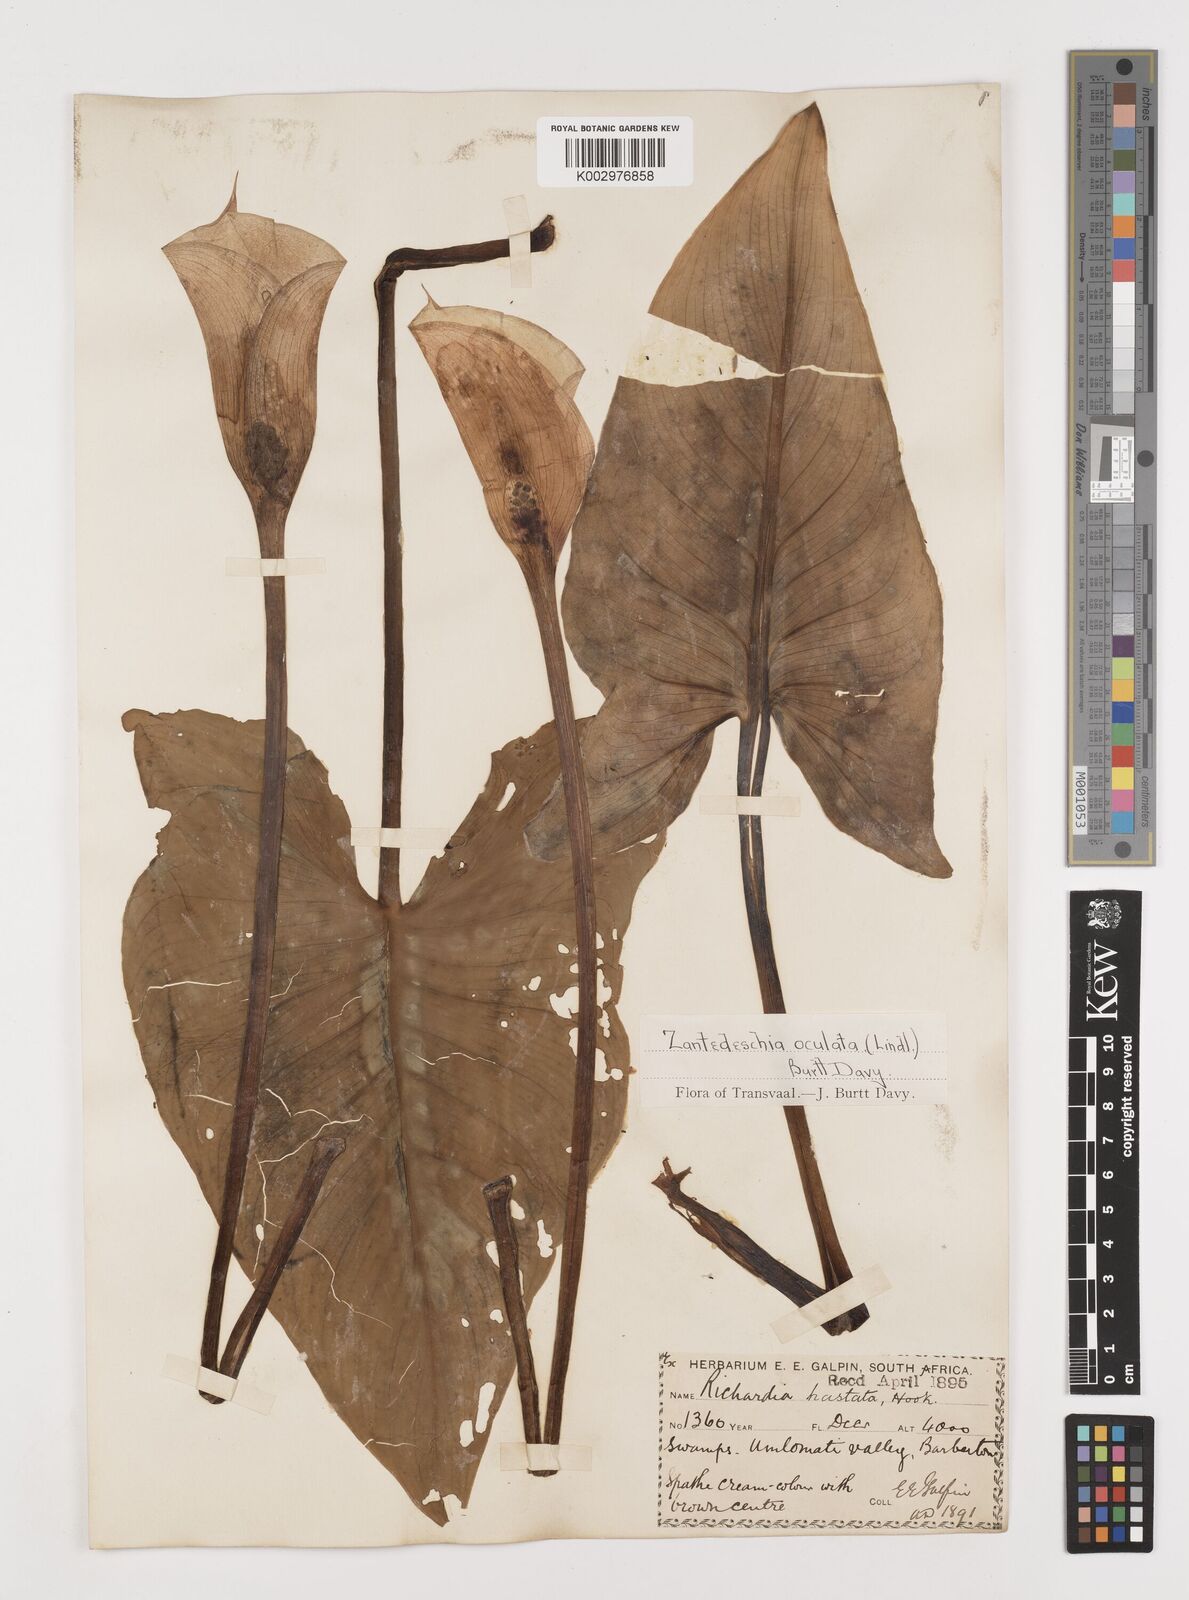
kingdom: Plantae
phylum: Tracheophyta
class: Liliopsida
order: Alismatales
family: Araceae
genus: Zantedeschia
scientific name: Zantedeschia albomaculata
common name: Spotted calla lily
